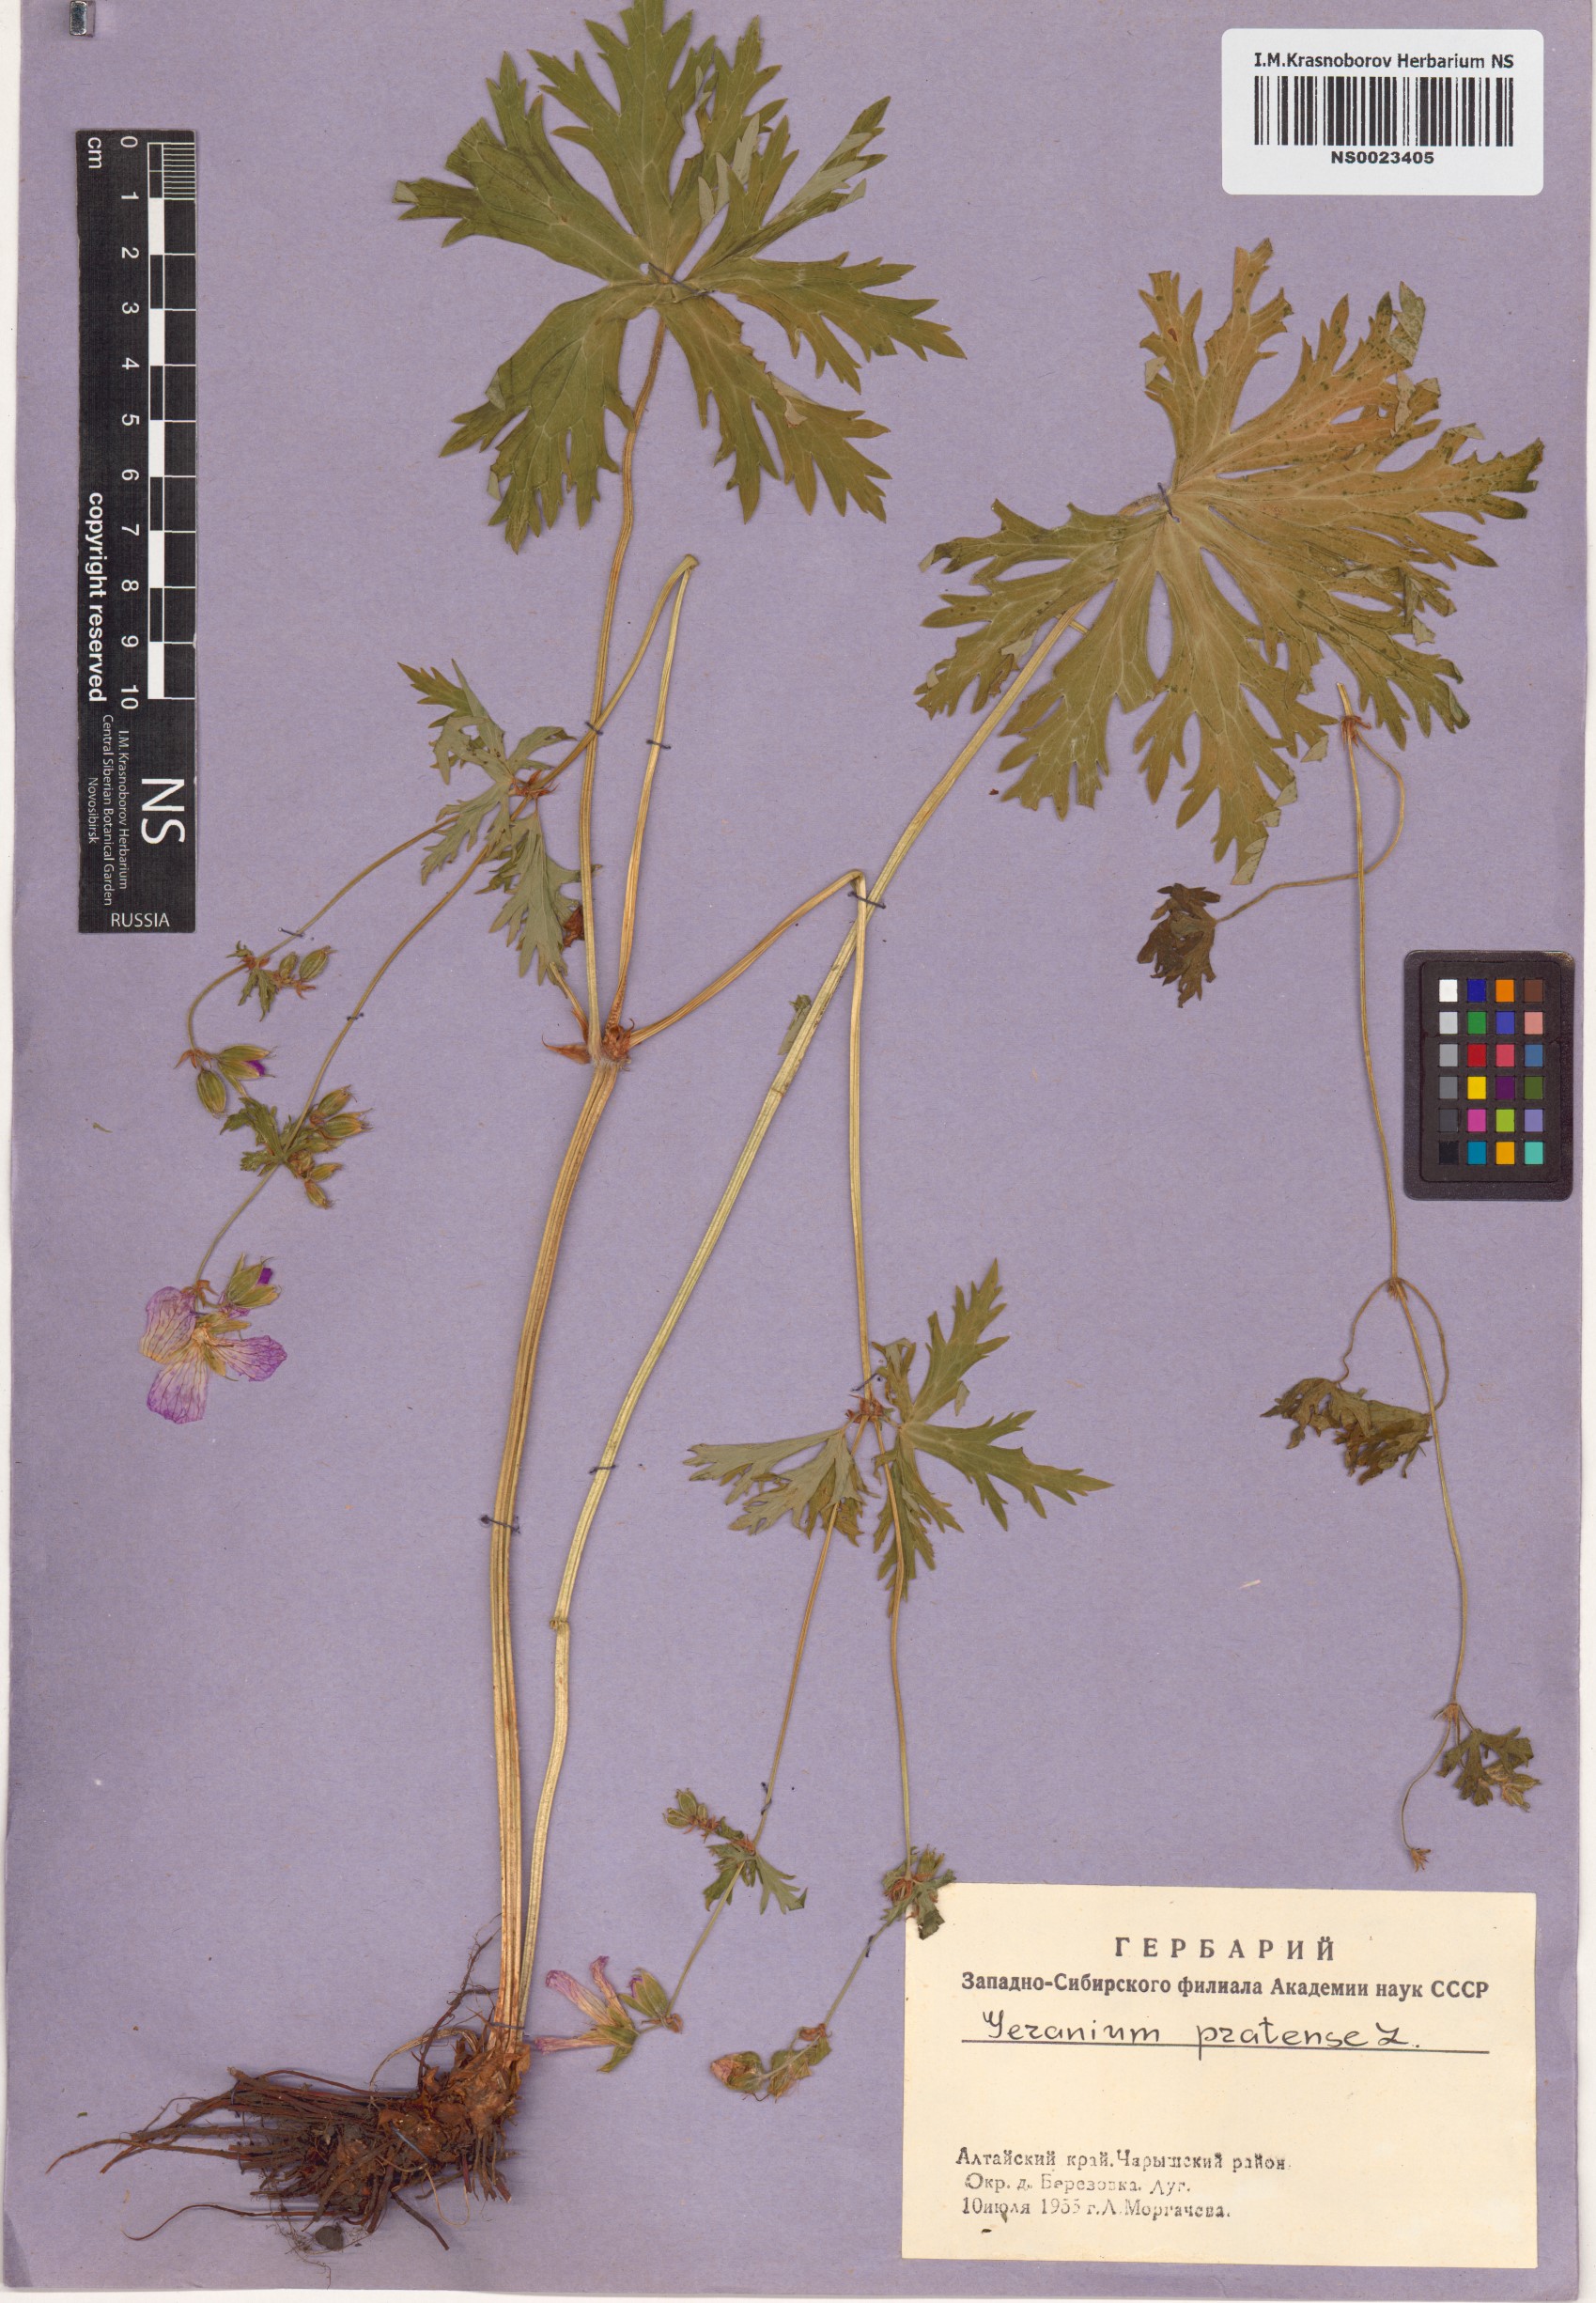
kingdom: Plantae
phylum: Tracheophyta
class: Magnoliopsida
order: Geraniales
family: Geraniaceae
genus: Geranium
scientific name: Geranium pratense
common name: Meadow crane's-bill
